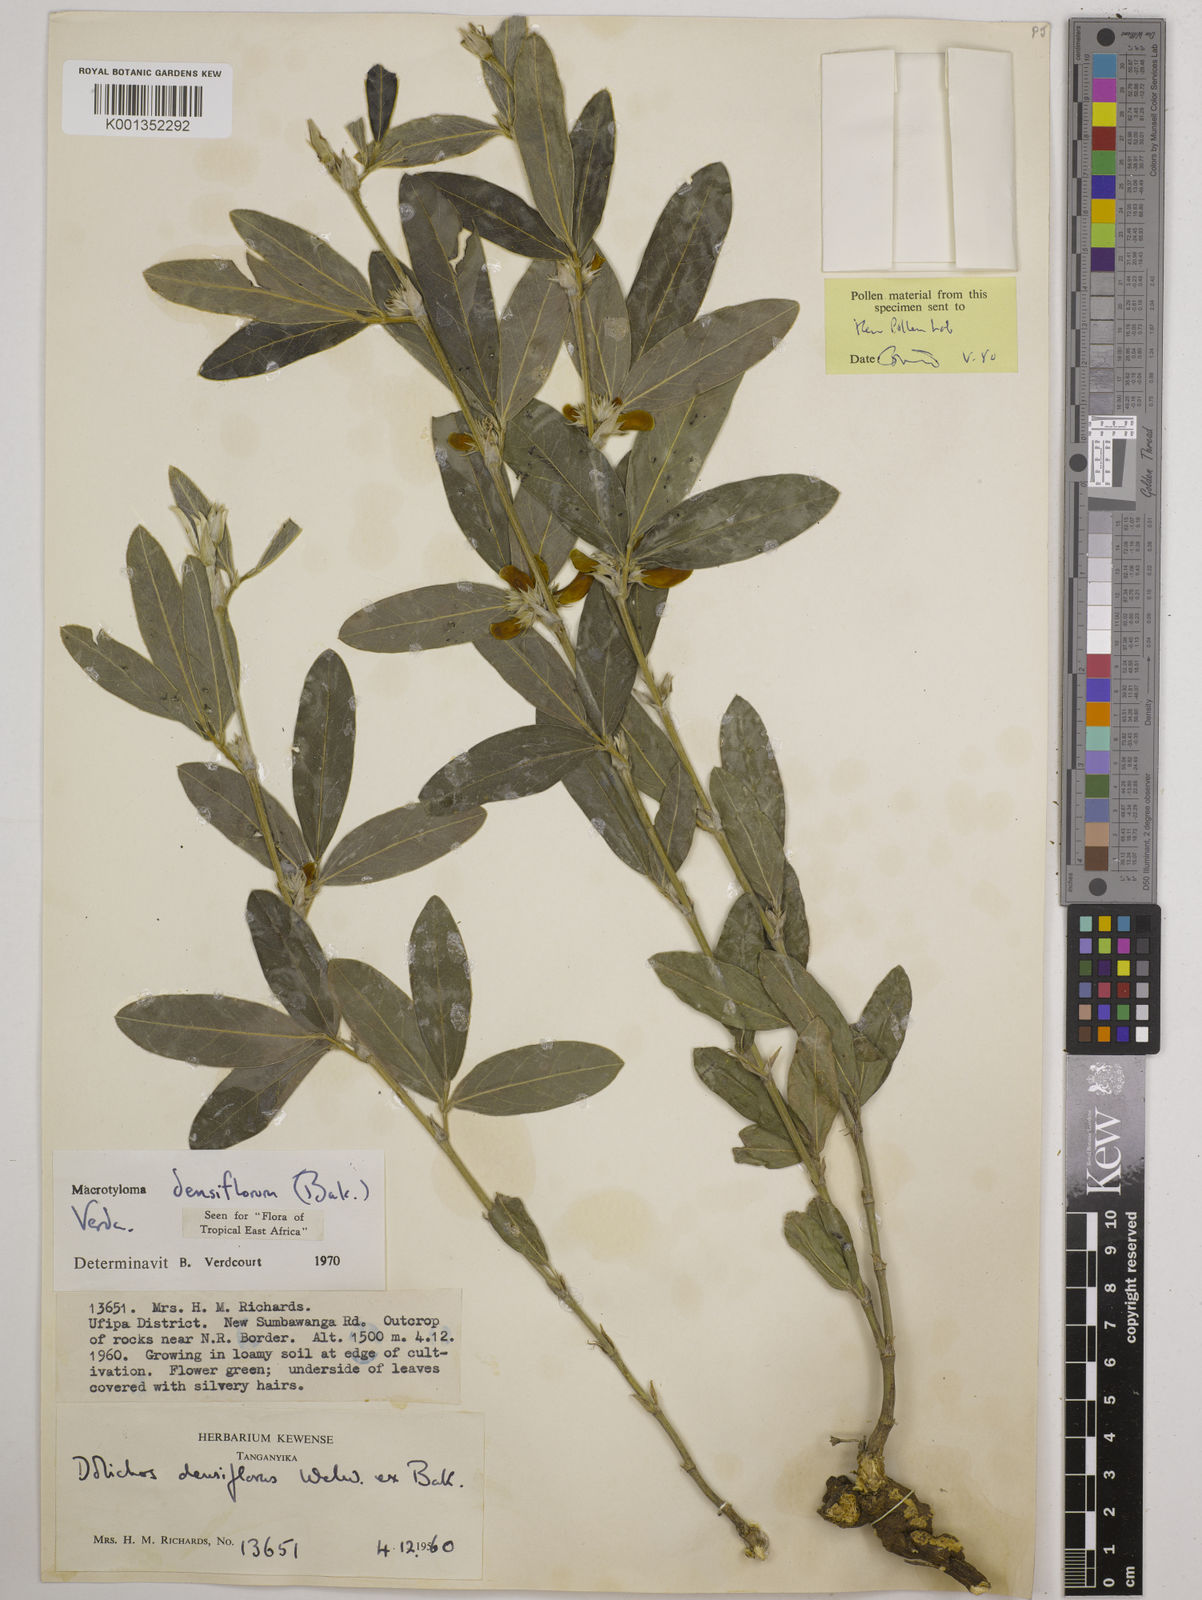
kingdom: Plantae
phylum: Tracheophyta
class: Magnoliopsida
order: Fabales
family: Fabaceae
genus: Macrotyloma
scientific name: Macrotyloma densiflorum
